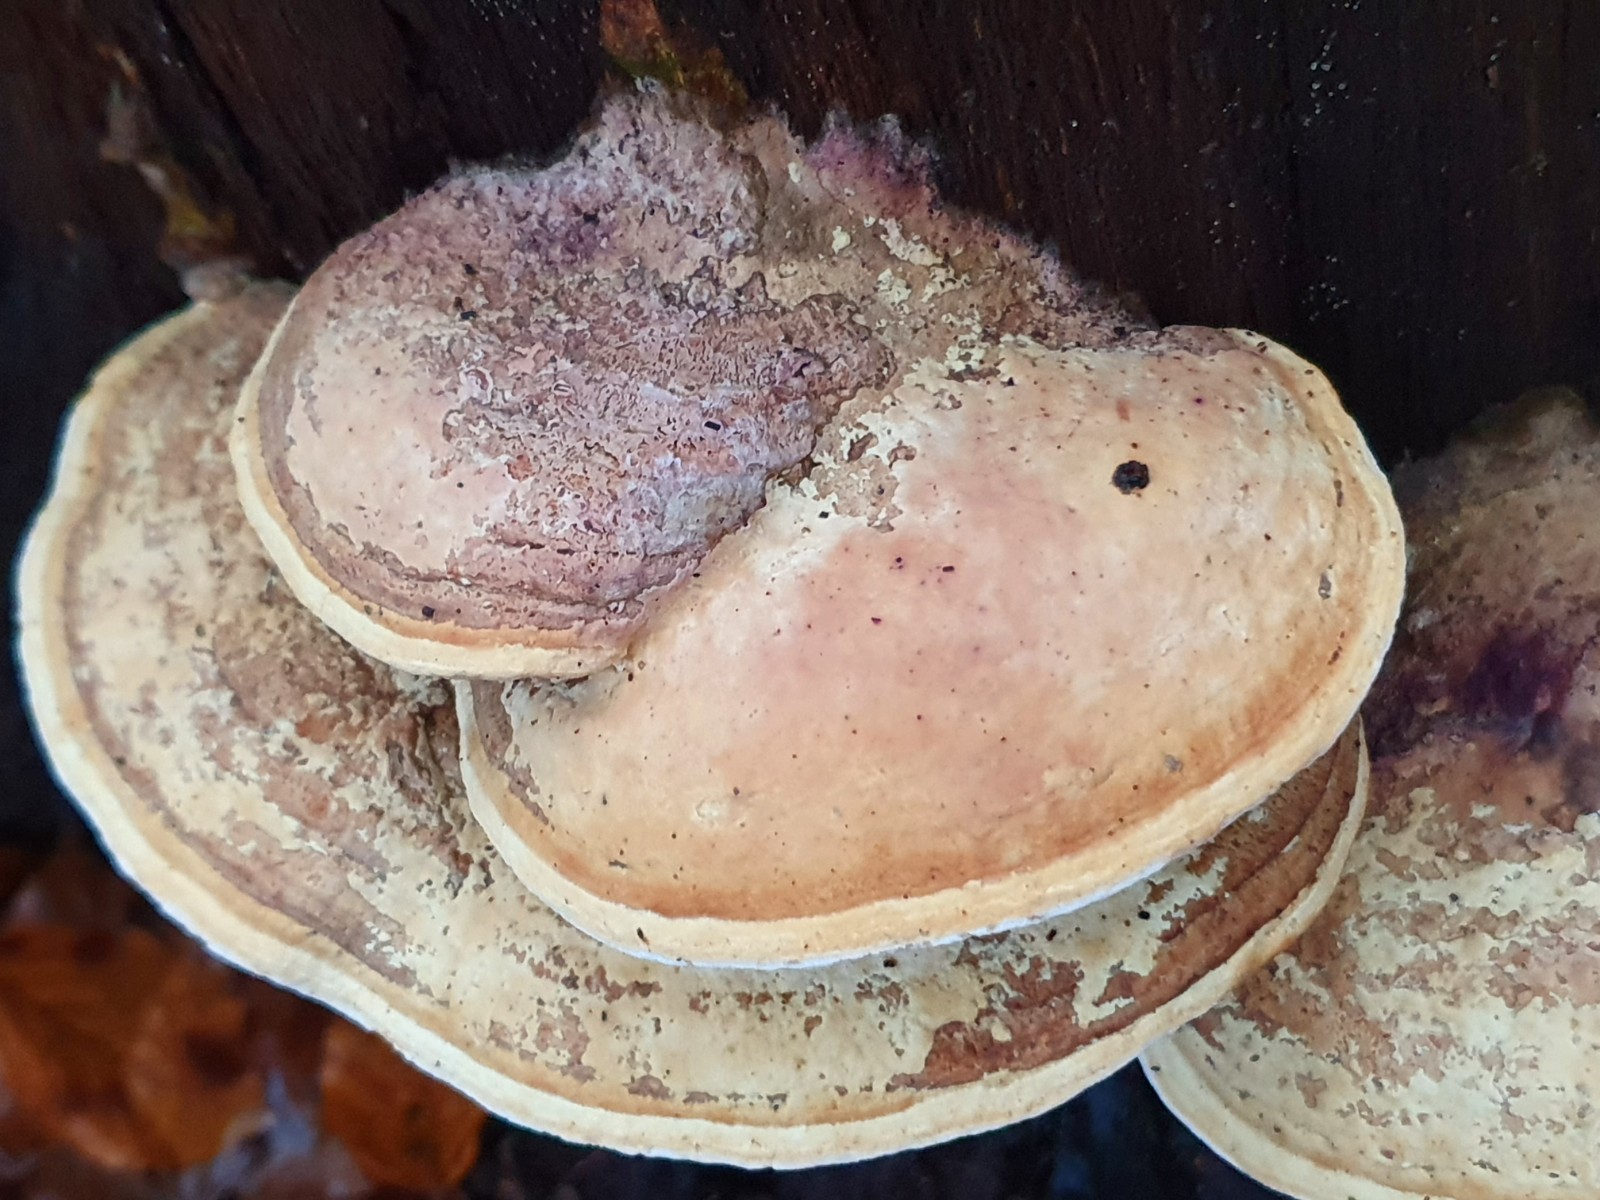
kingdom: Fungi
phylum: Basidiomycota
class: Agaricomycetes
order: Polyporales
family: Fomitopsidaceae
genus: Daedalea
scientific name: Daedalea quercina
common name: ege-labyrintsvamp
